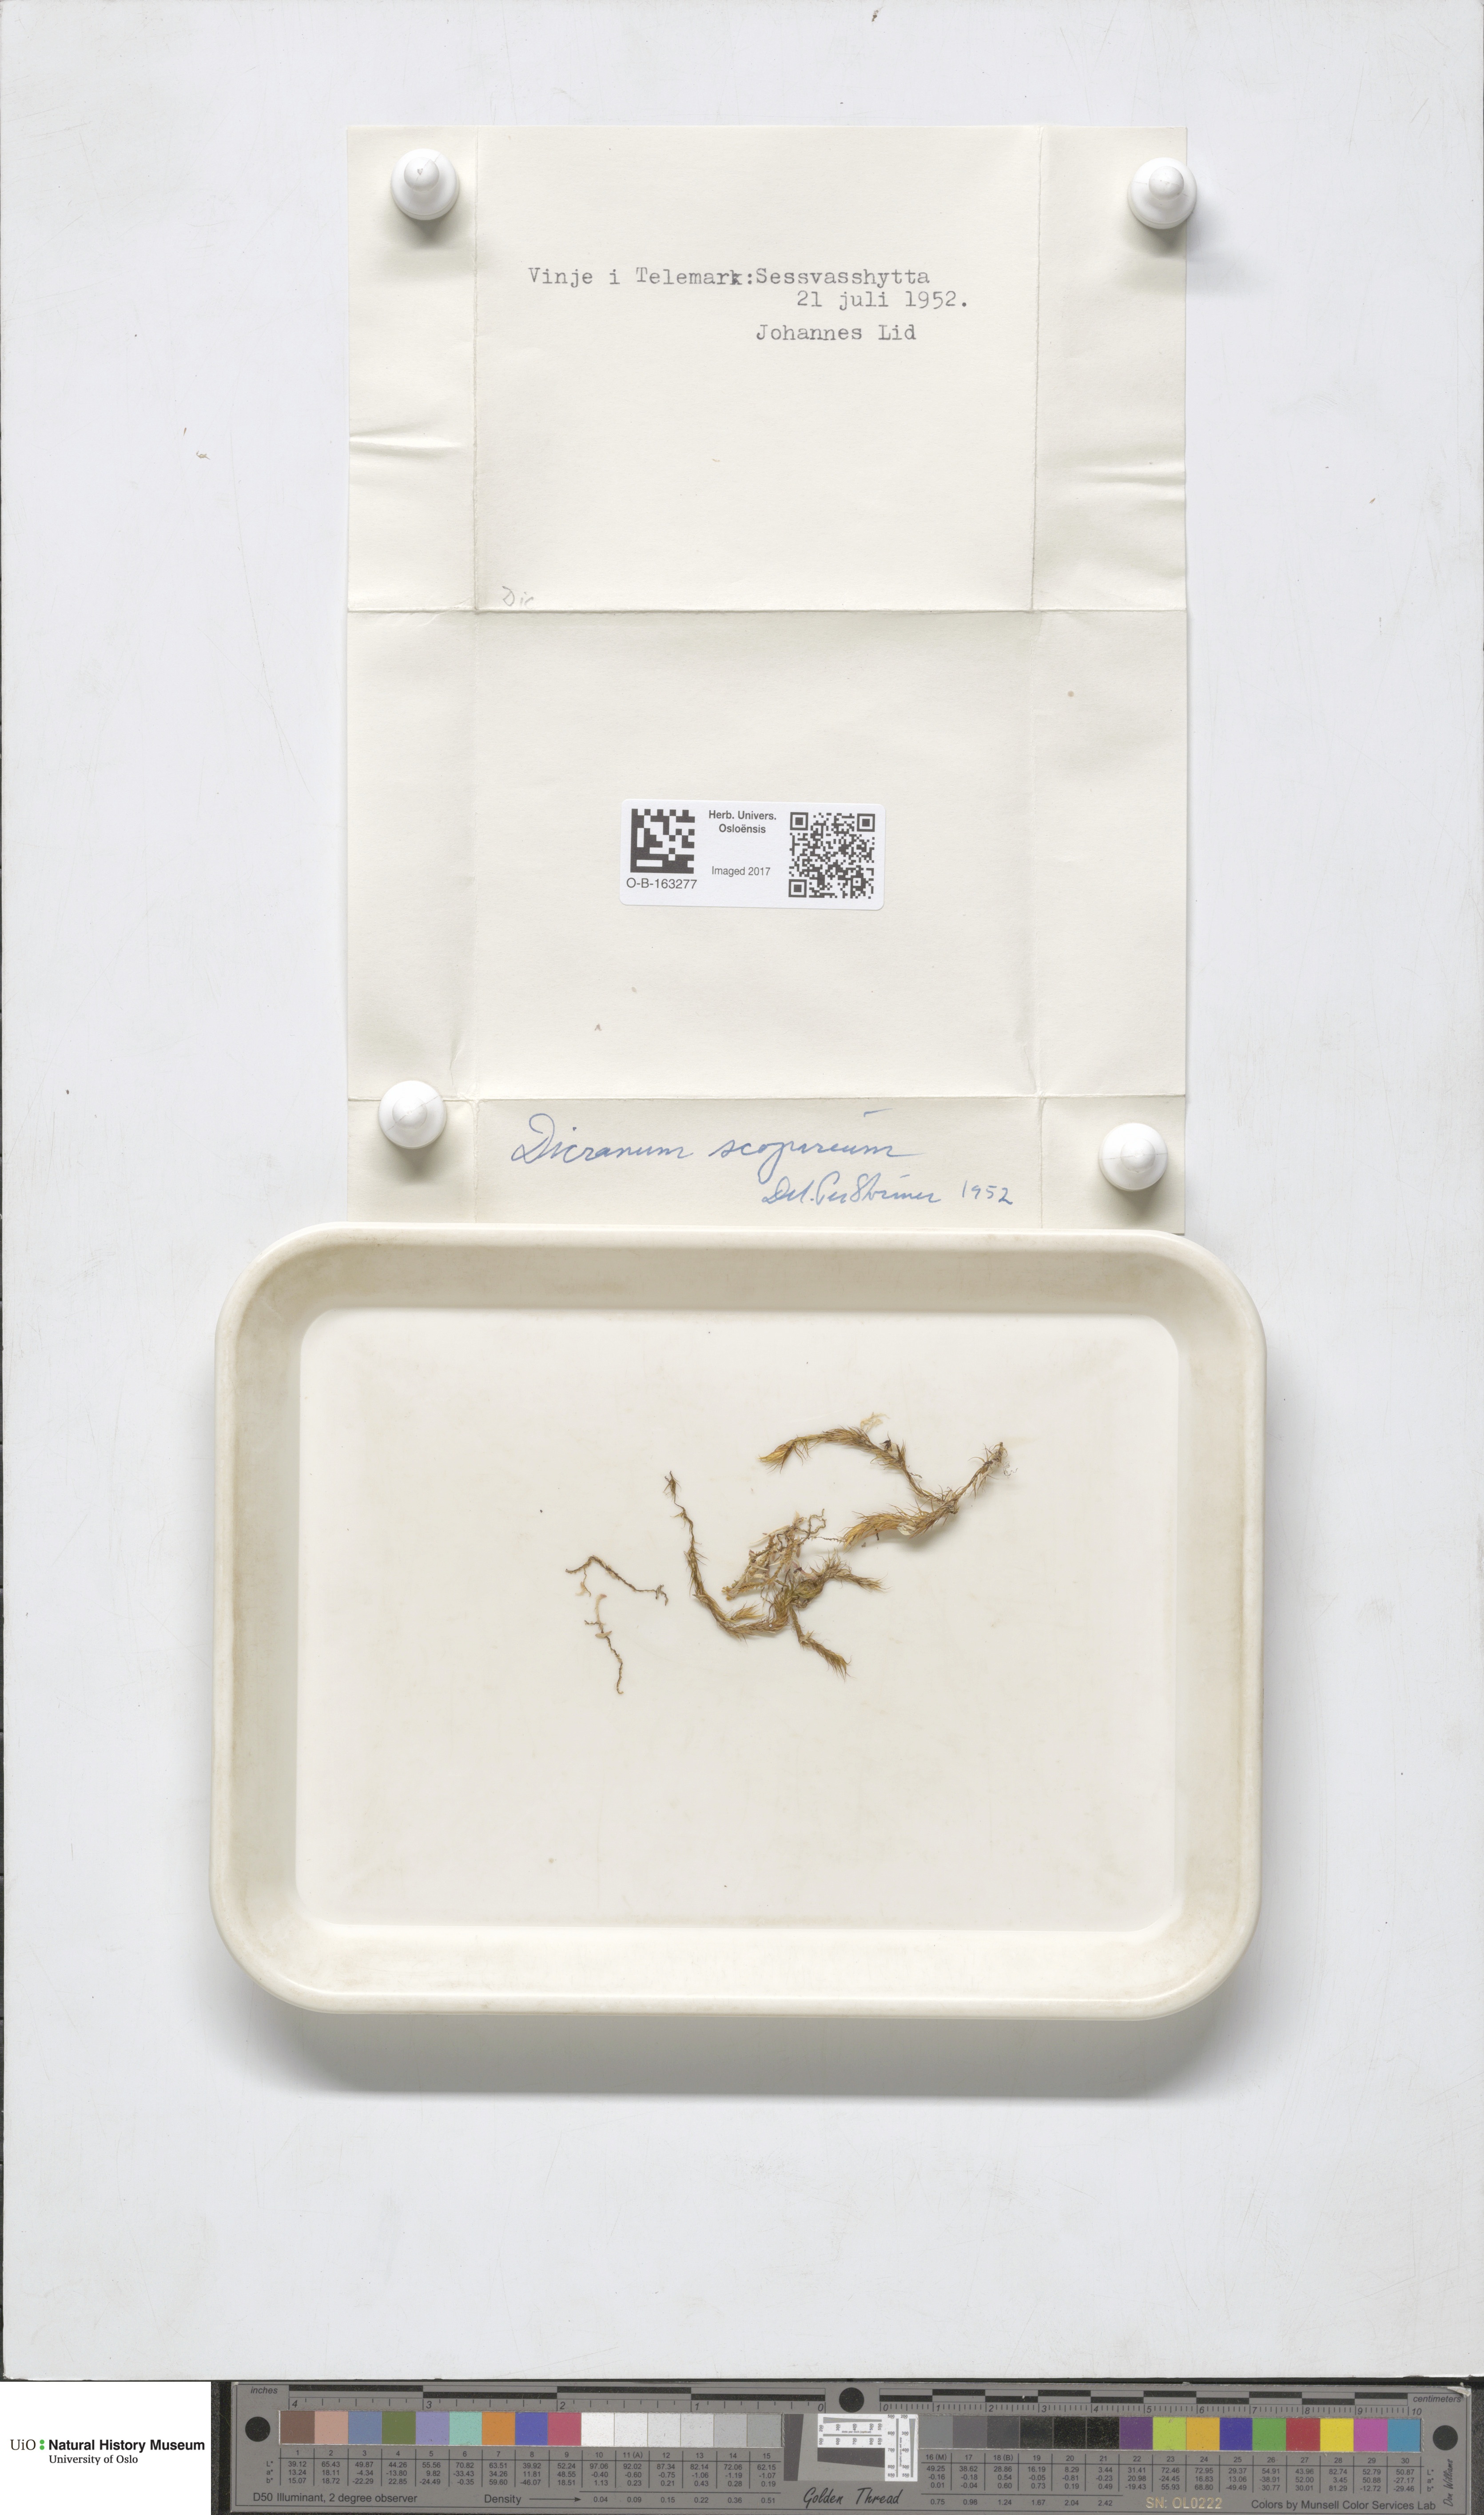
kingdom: Plantae
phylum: Bryophyta
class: Bryopsida
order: Dicranales
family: Dicranaceae
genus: Dicranum
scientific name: Dicranum scoparium
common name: Broom fork-moss
